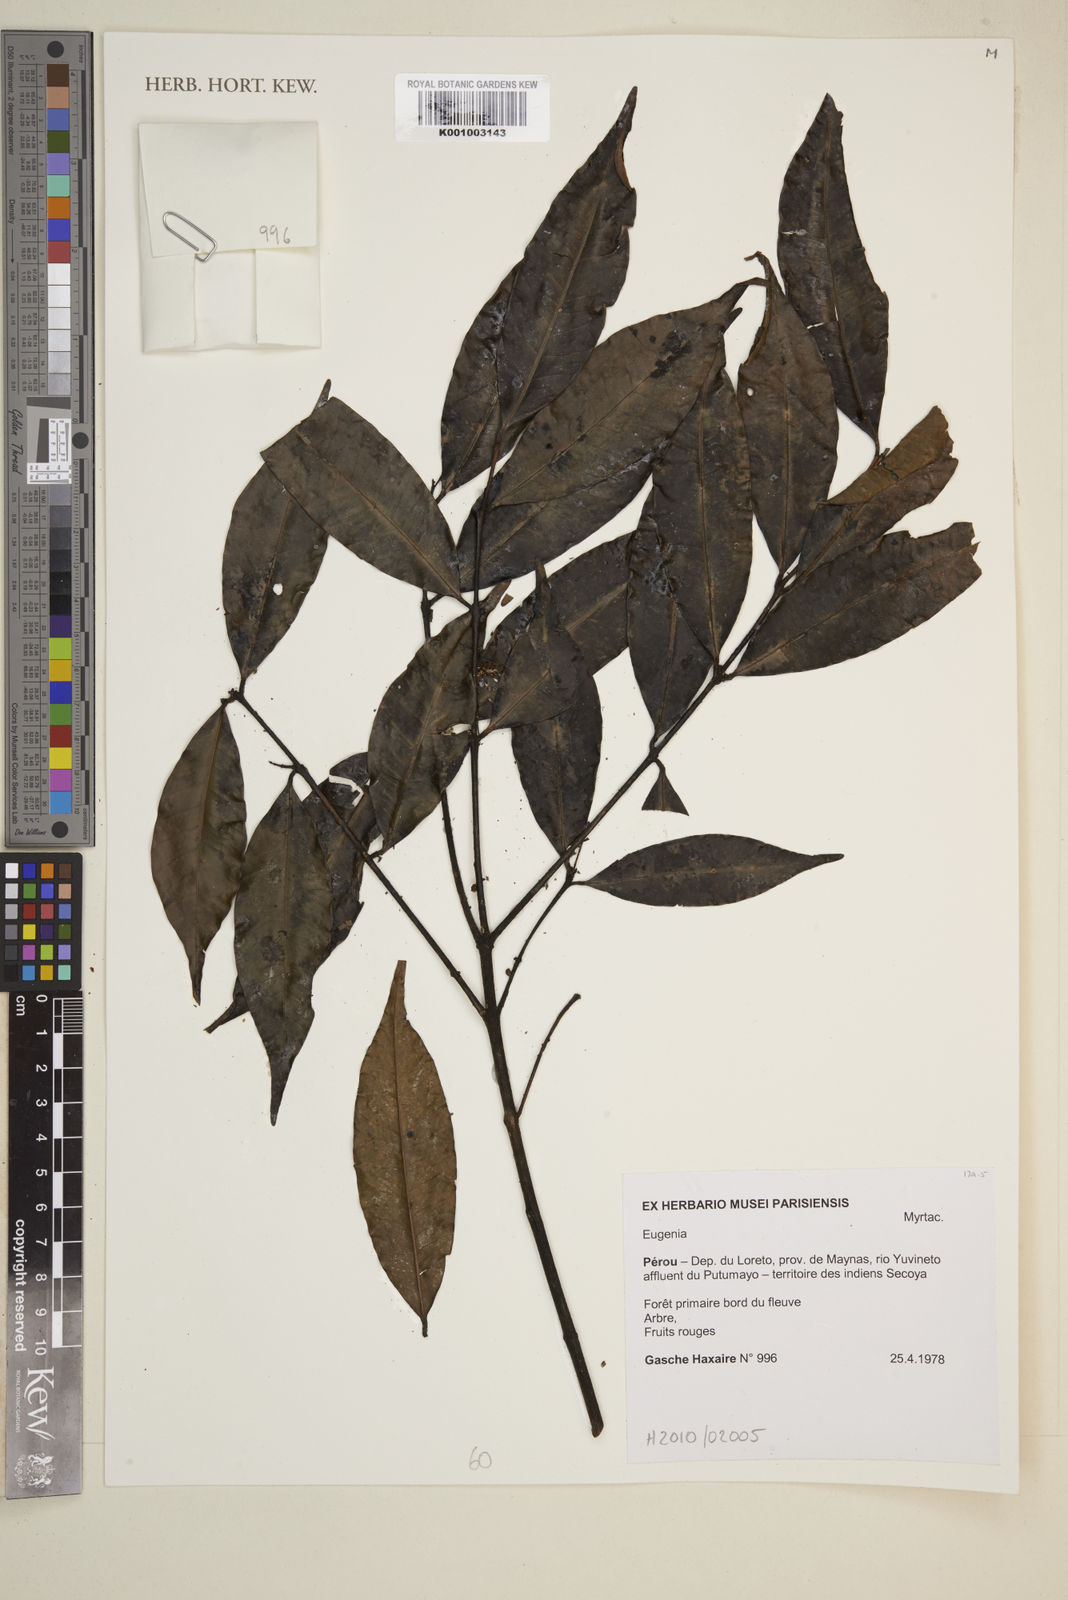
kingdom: Plantae
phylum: Tracheophyta
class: Magnoliopsida
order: Myrtales
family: Myrtaceae
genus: Eugenia
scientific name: Eugenia
